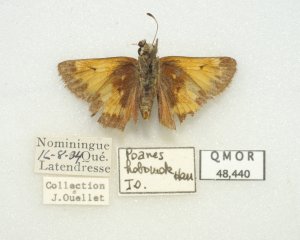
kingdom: Animalia
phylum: Arthropoda
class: Insecta
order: Lepidoptera
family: Hesperiidae
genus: Lon
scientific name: Lon hobomok
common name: Hobomok Skipper
